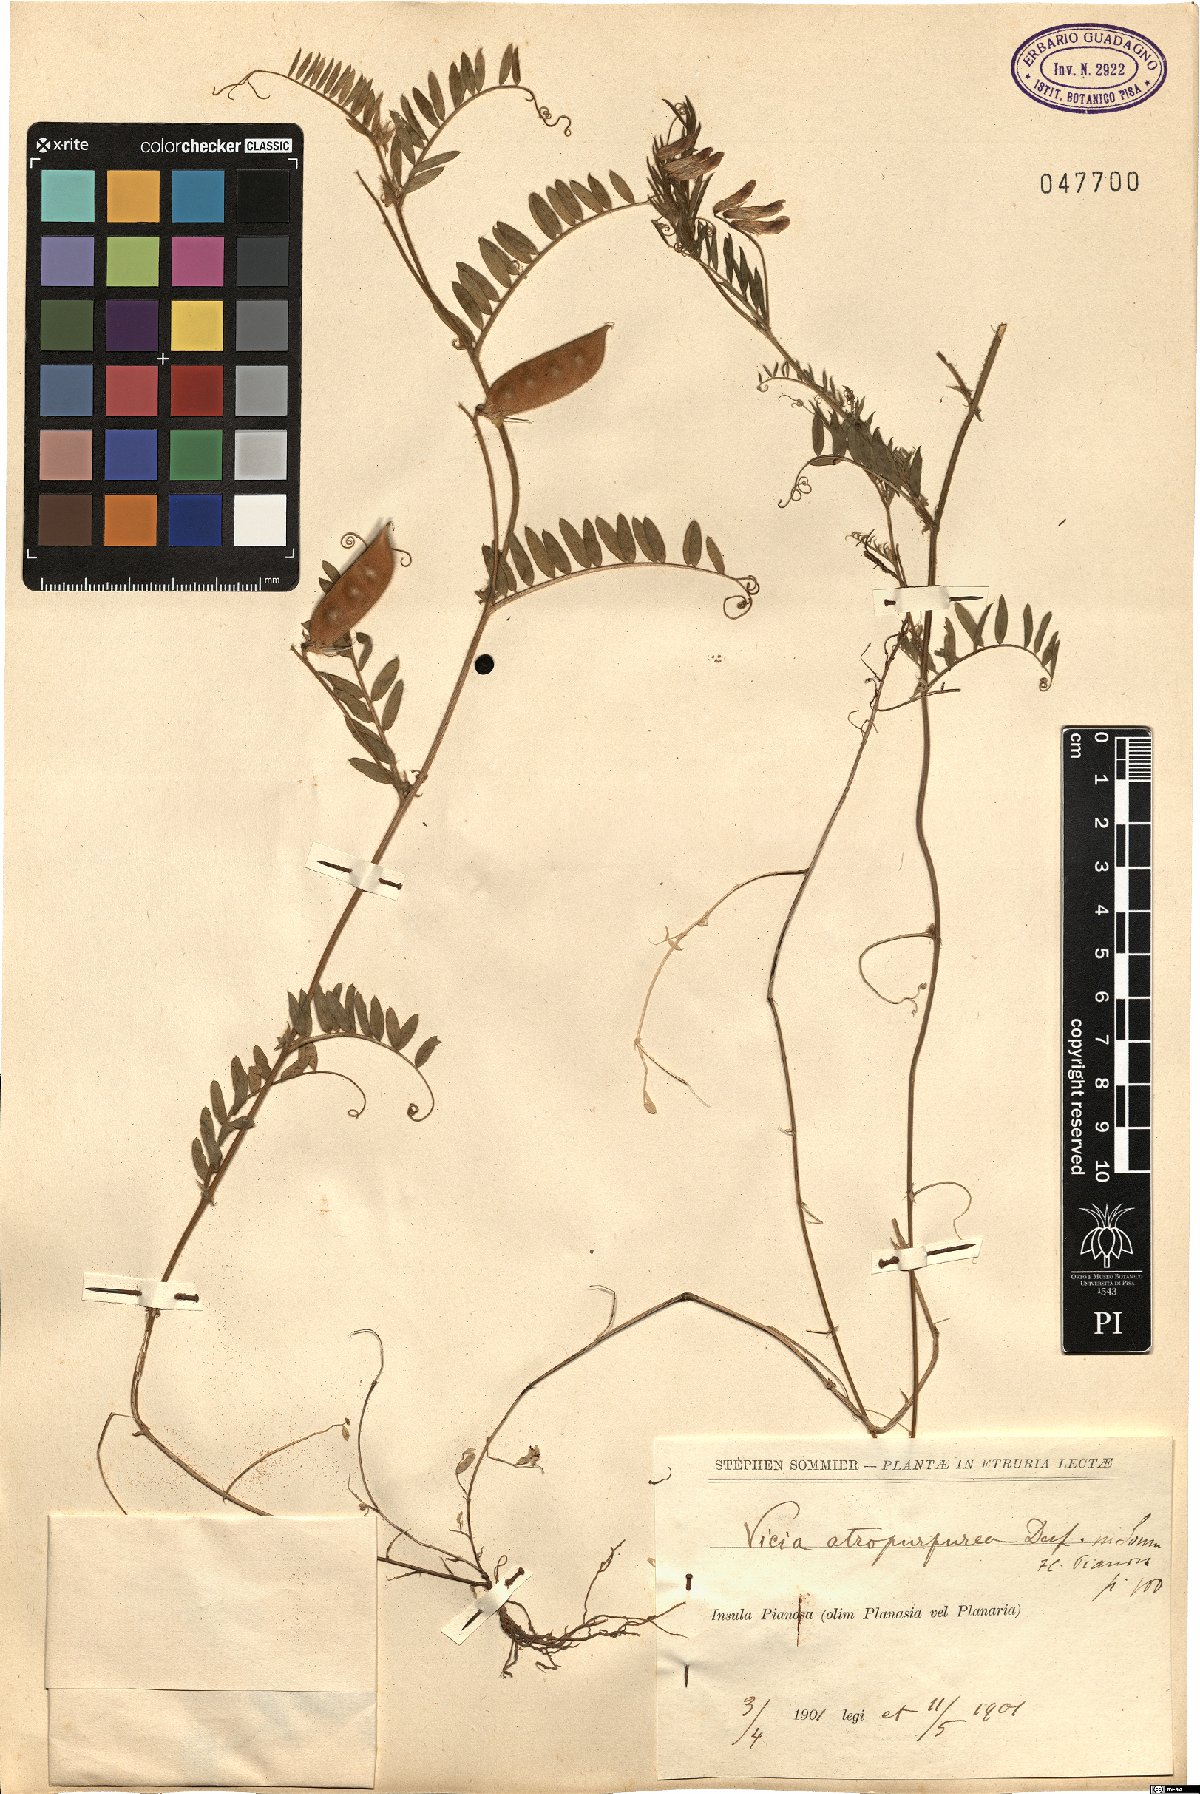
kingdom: Plantae
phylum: Tracheophyta
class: Magnoliopsida
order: Fabales
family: Fabaceae
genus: Vicia
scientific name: Vicia benghalensis
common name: Purple vetch
